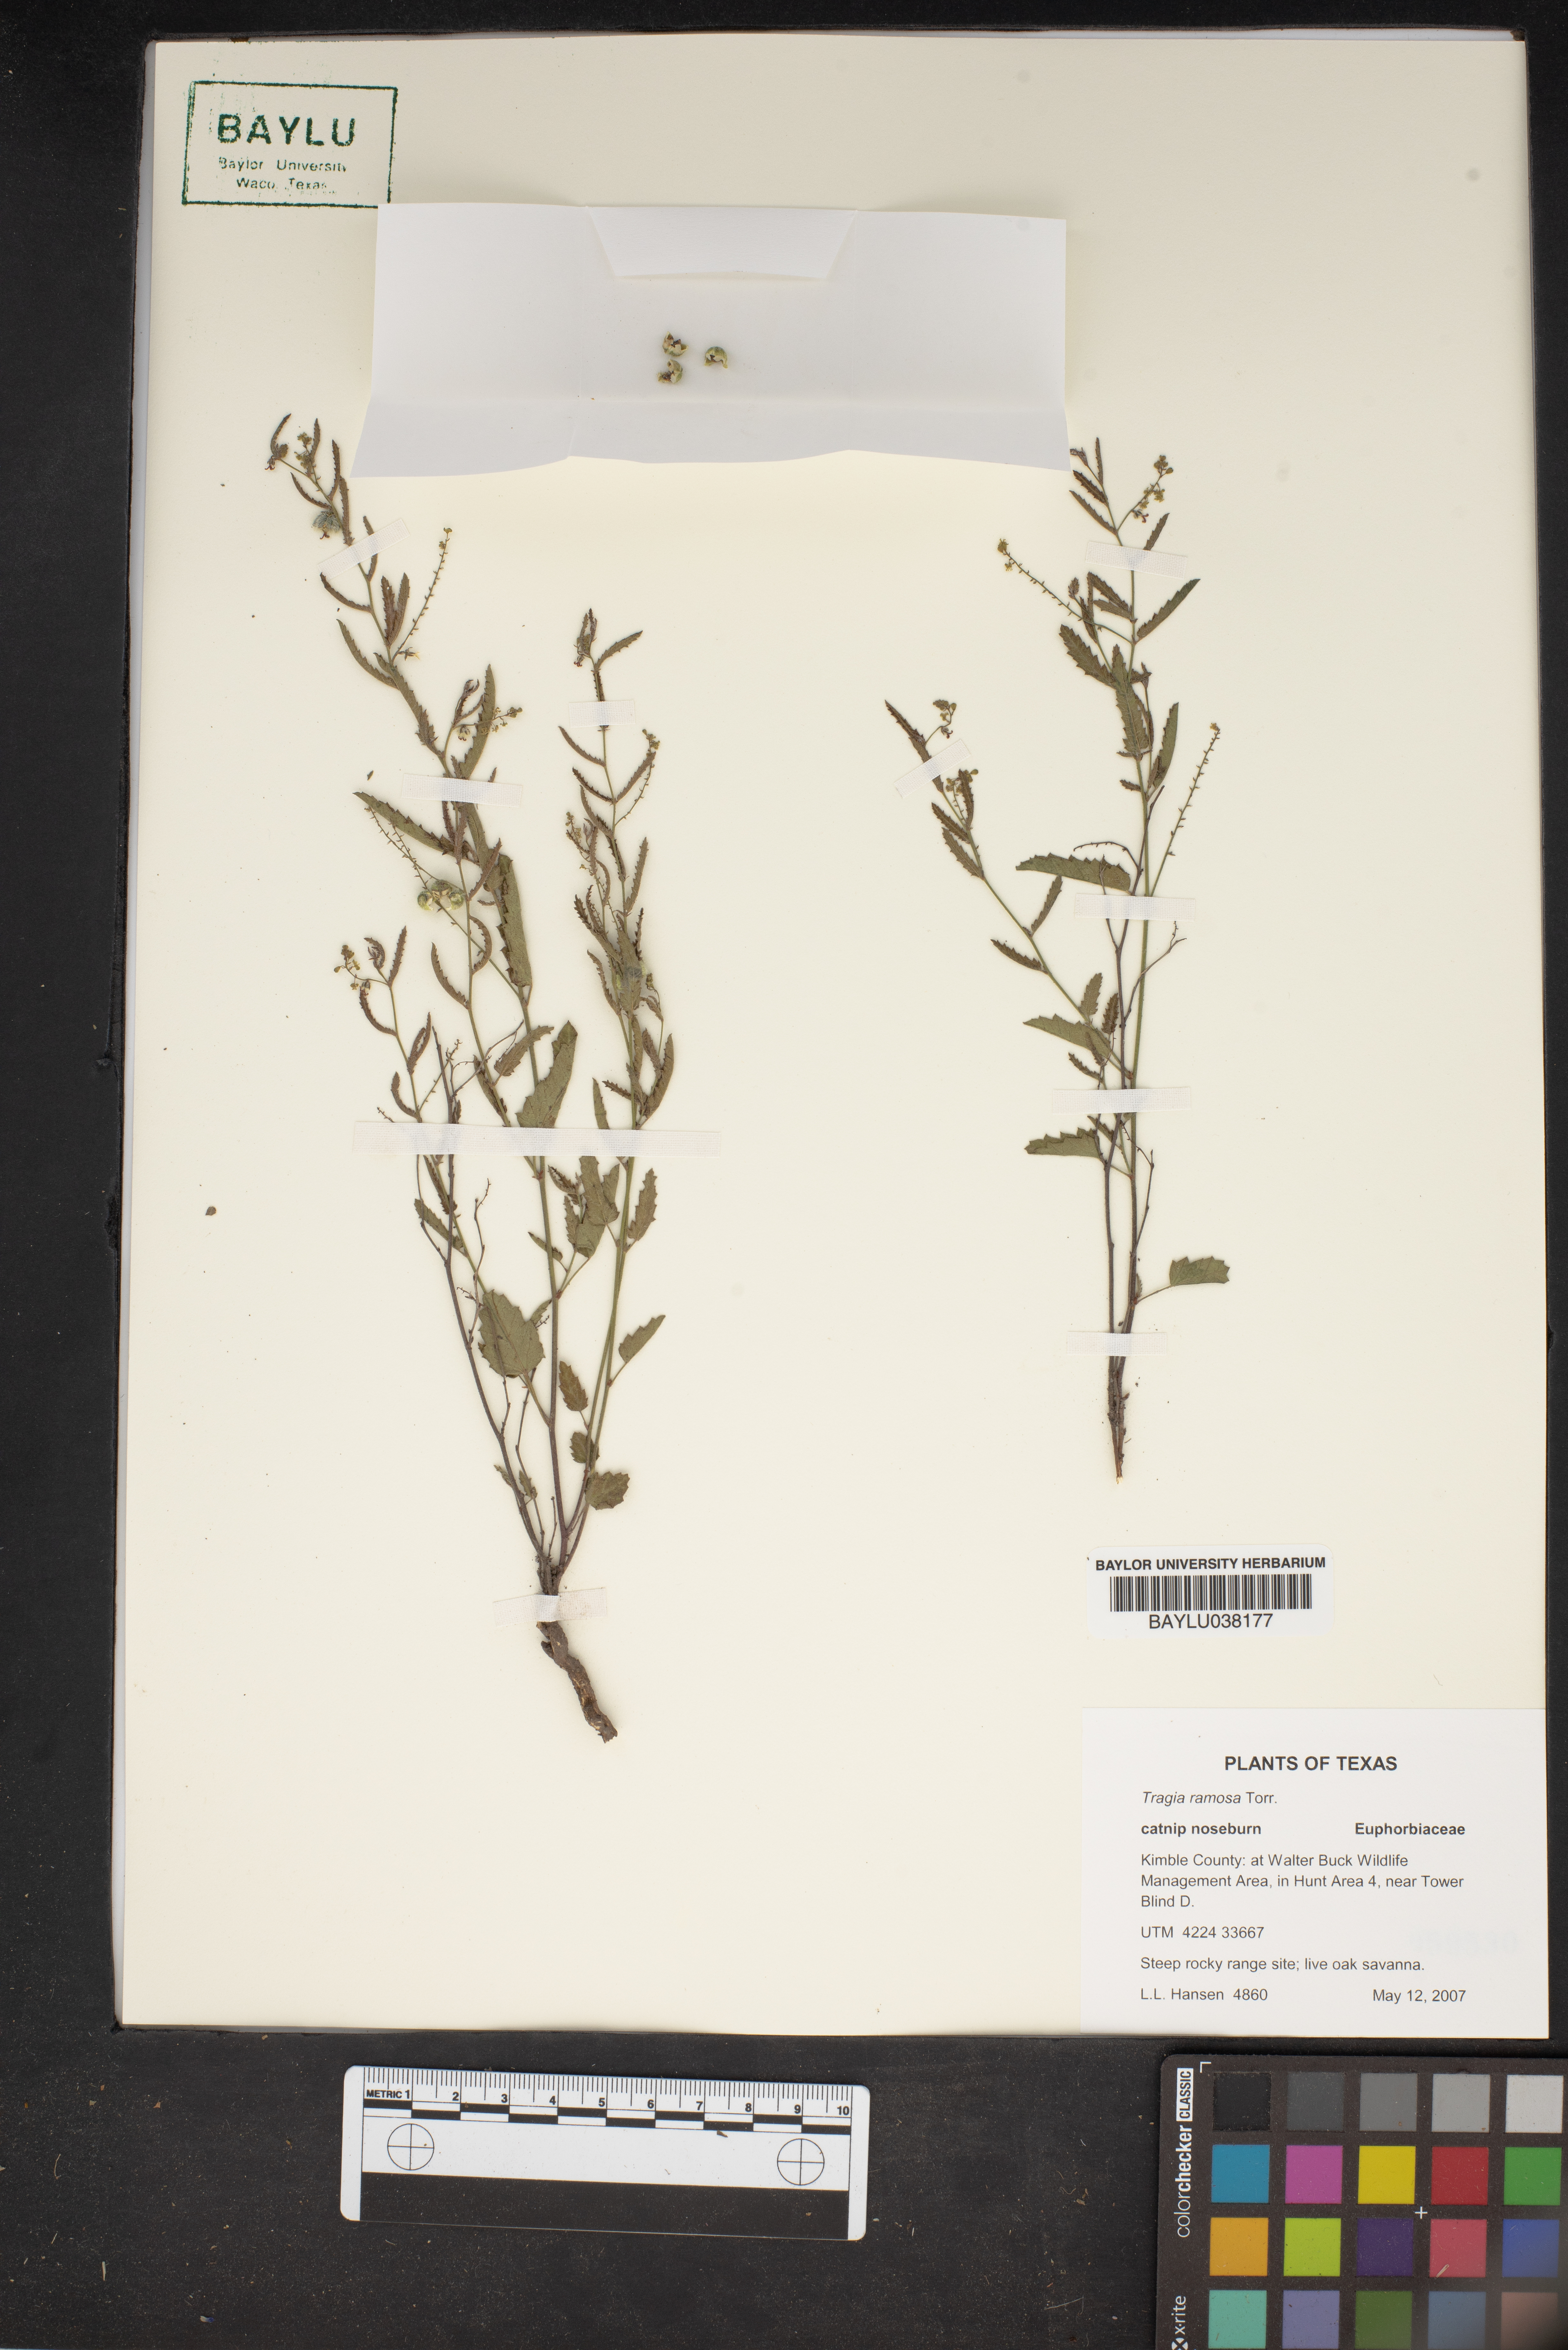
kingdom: Plantae
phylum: Tracheophyta
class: Magnoliopsida
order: Malpighiales
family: Euphorbiaceae
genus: Tragia
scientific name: Tragia ramosa
